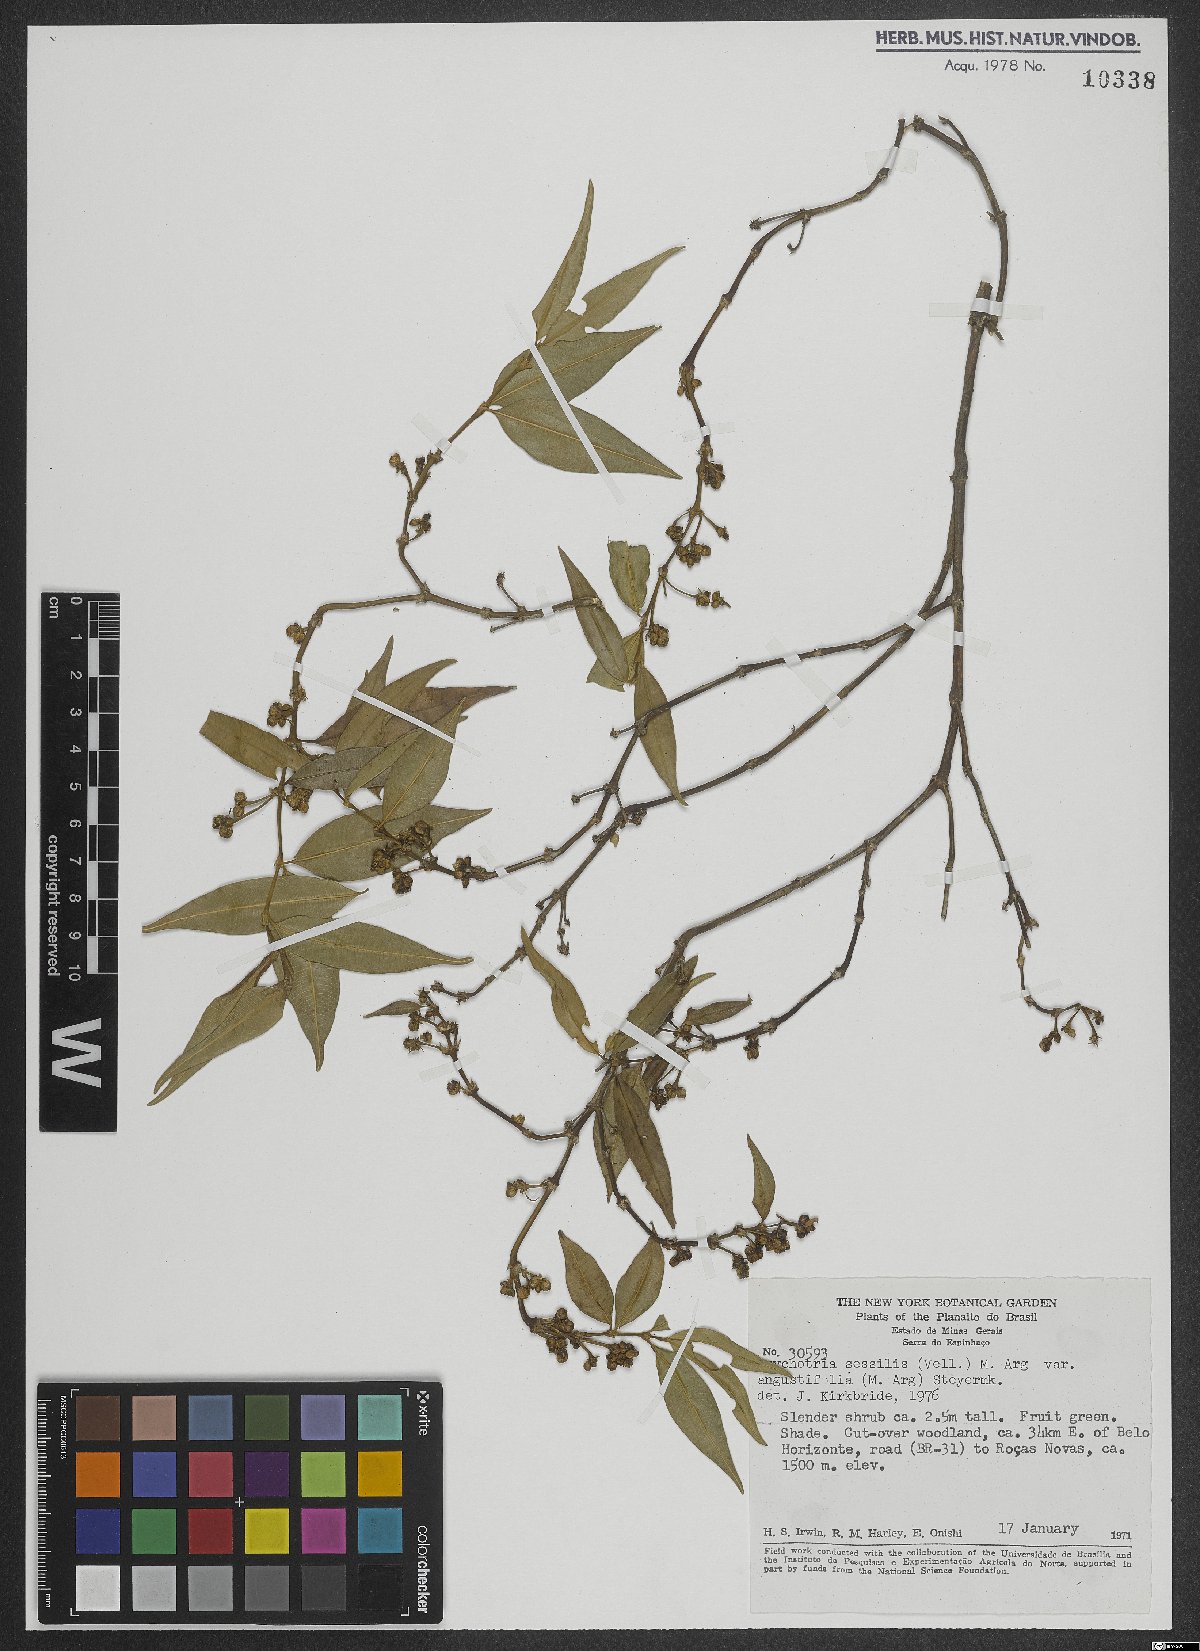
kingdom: Plantae
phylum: Tracheophyta
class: Magnoliopsida
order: Gentianales
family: Rubiaceae
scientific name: Rubiaceae
